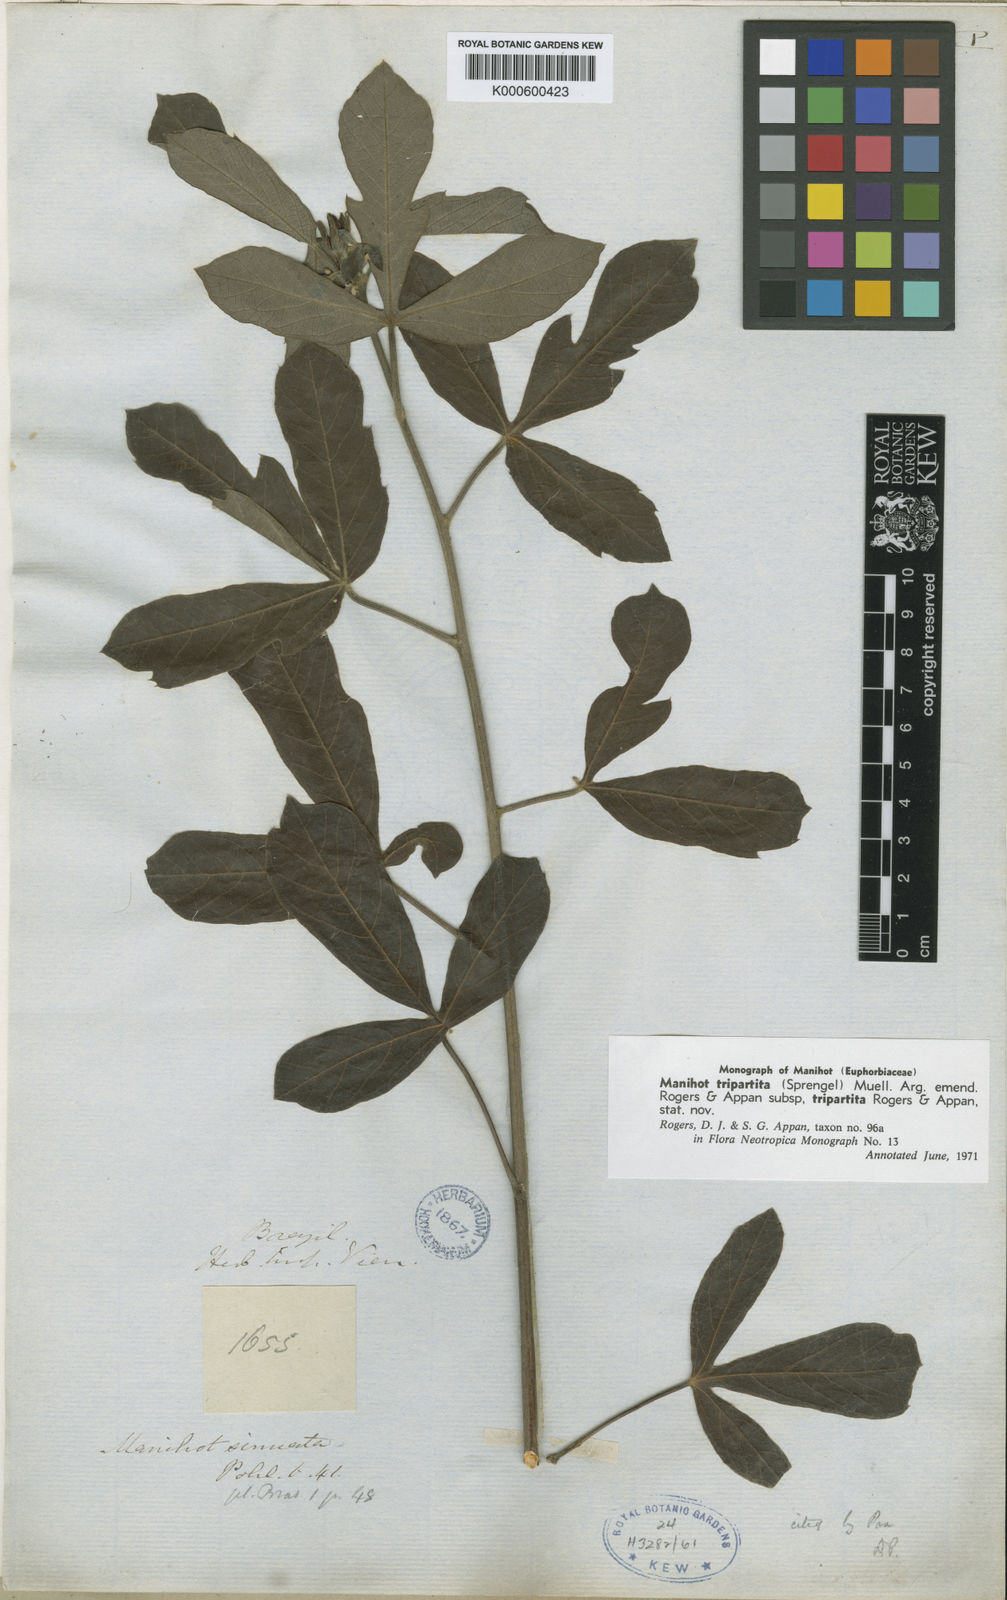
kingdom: Plantae
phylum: Tracheophyta
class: Magnoliopsida
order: Malpighiales
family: Euphorbiaceae
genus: Manihot
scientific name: Manihot
